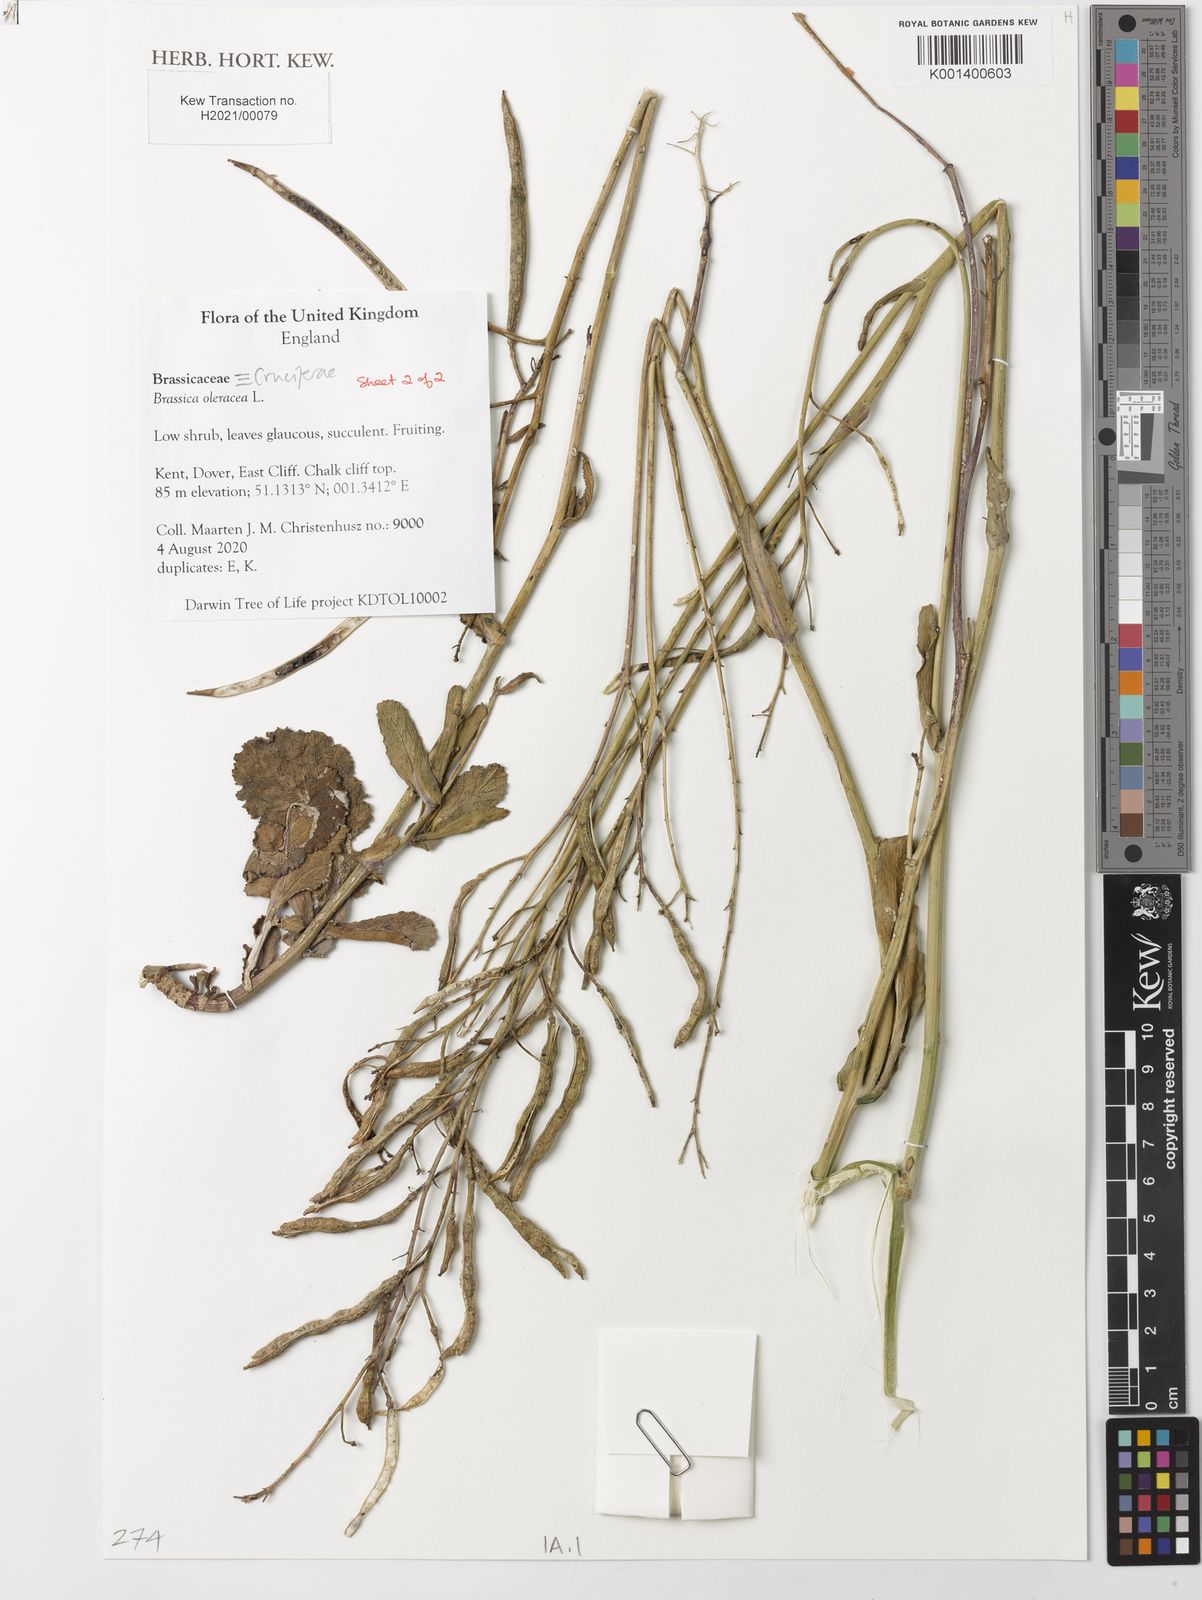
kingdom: Plantae
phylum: Tracheophyta
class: Magnoliopsida
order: Brassicales
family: Brassicaceae
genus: Brassica
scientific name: Brassica oleracea
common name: Cabbage
